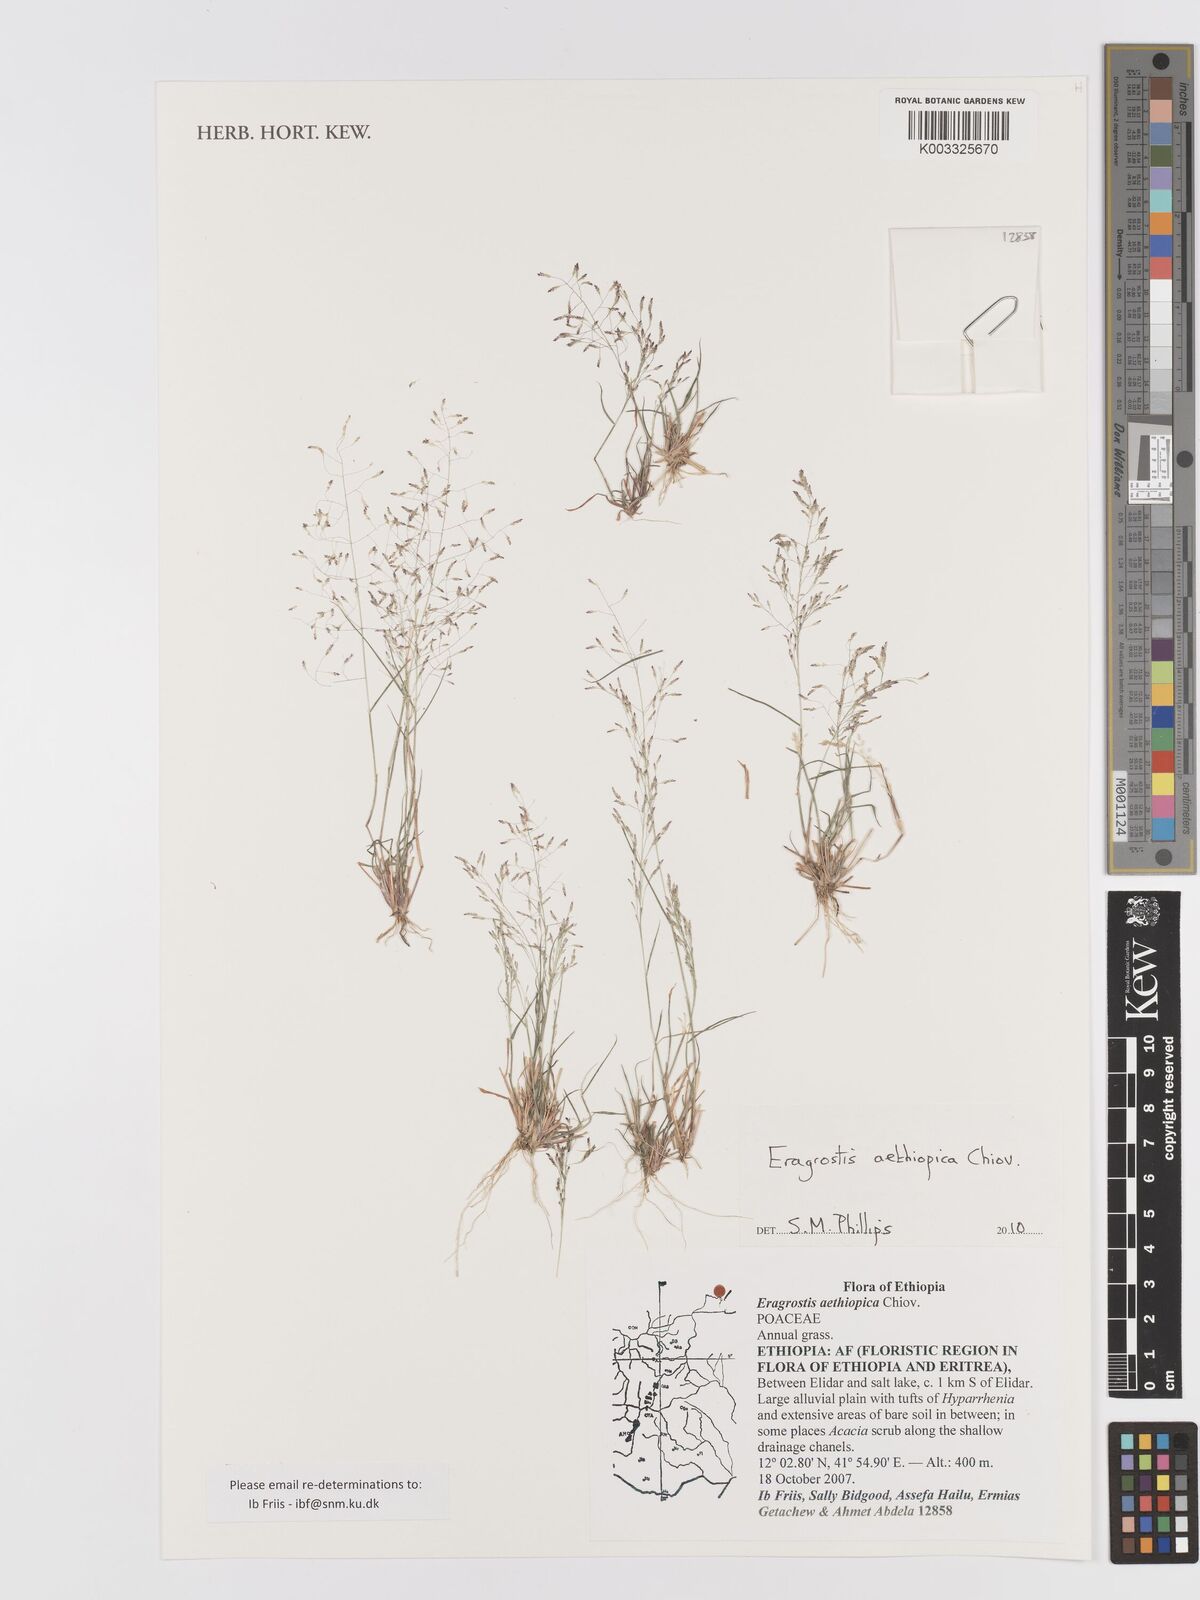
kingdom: Plantae
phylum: Tracheophyta
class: Liliopsida
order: Poales
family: Poaceae
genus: Eragrostis
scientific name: Eragrostis aethiopica
